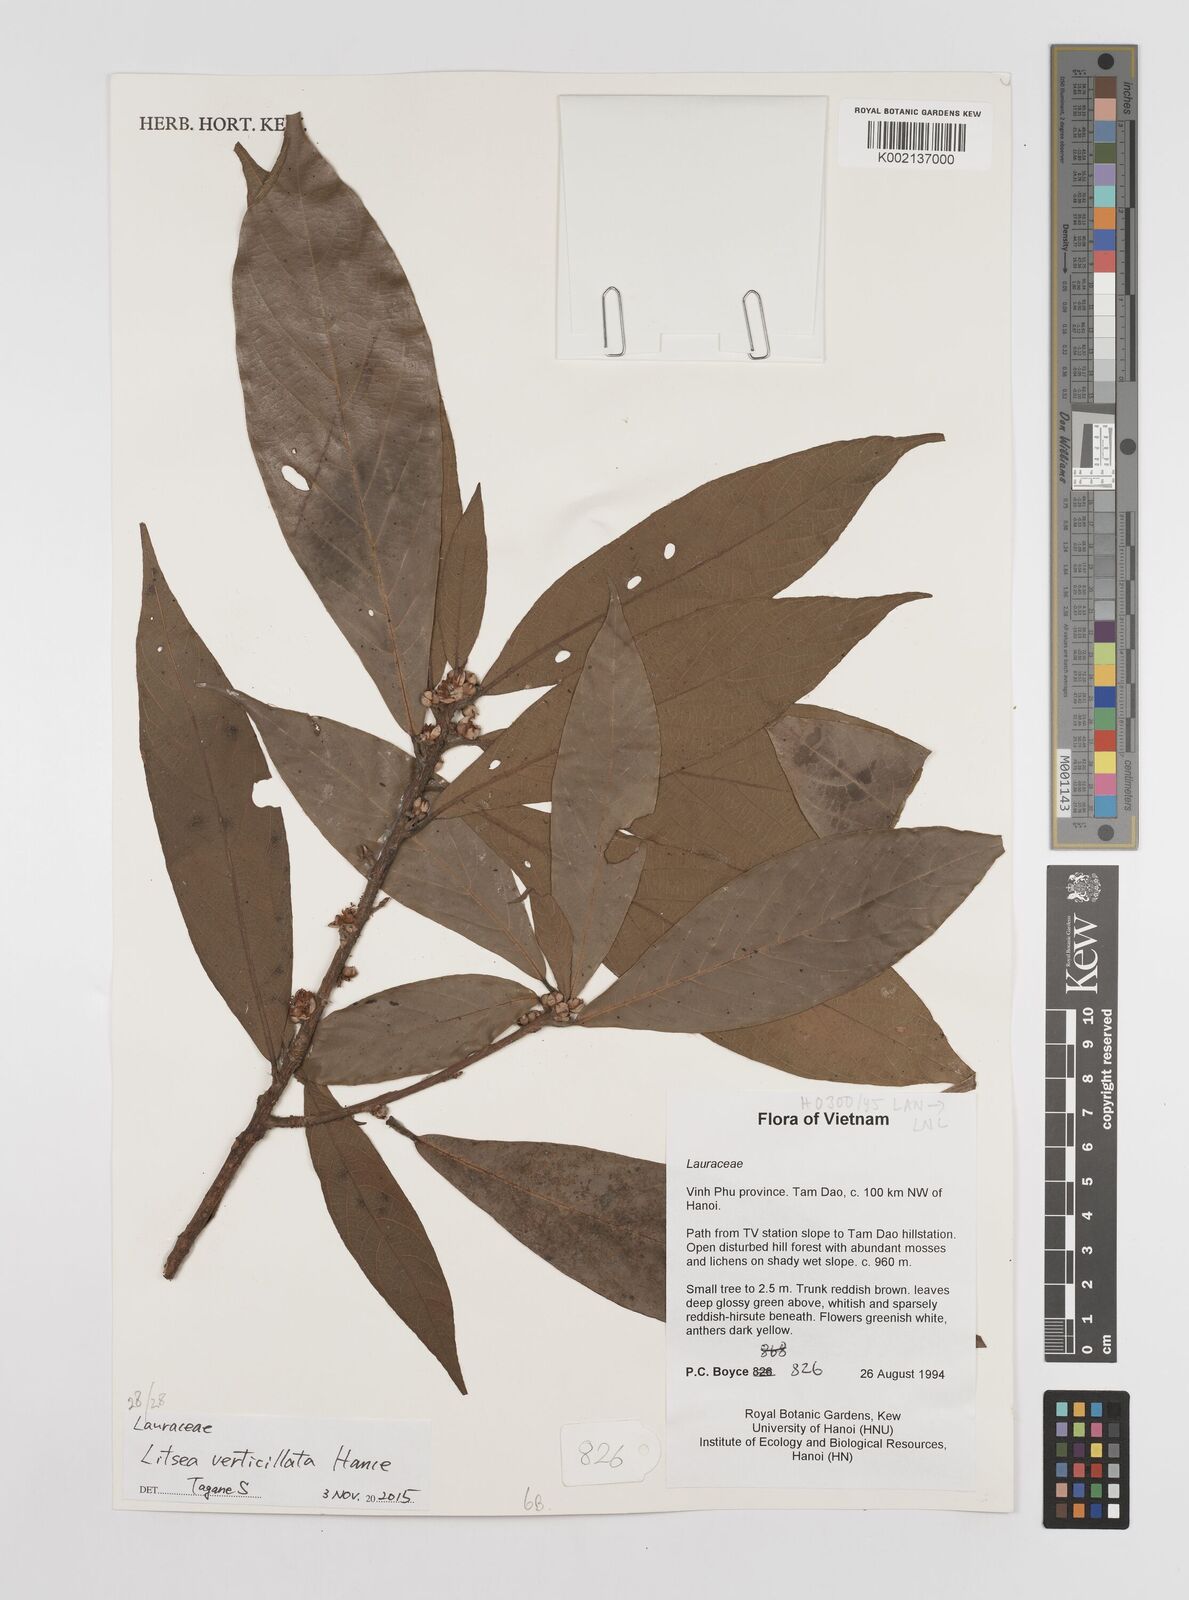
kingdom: Plantae
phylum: Tracheophyta
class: Magnoliopsida
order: Laurales
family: Lauraceae
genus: Litsea
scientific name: Litsea verticillata
